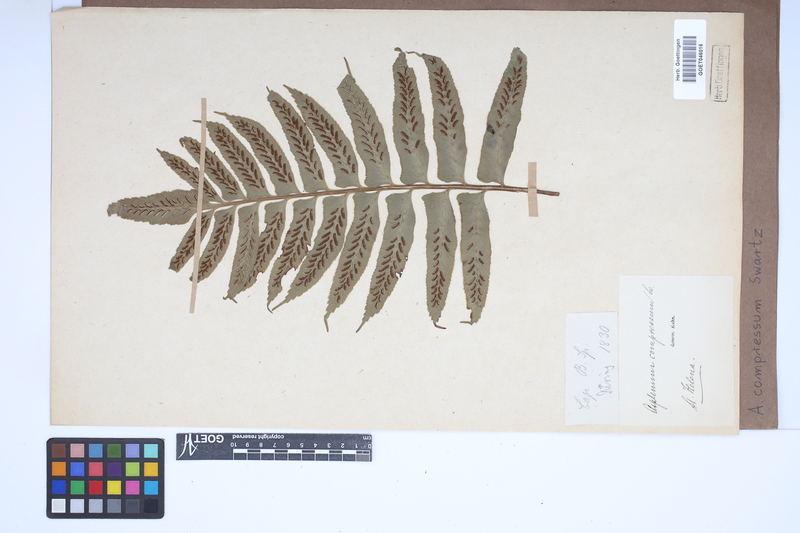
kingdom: Plantae
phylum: Tracheophyta
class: Polypodiopsida
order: Polypodiales
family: Aspleniaceae
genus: Asplenium
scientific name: Asplenium compressum
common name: Hen and chicks fern
